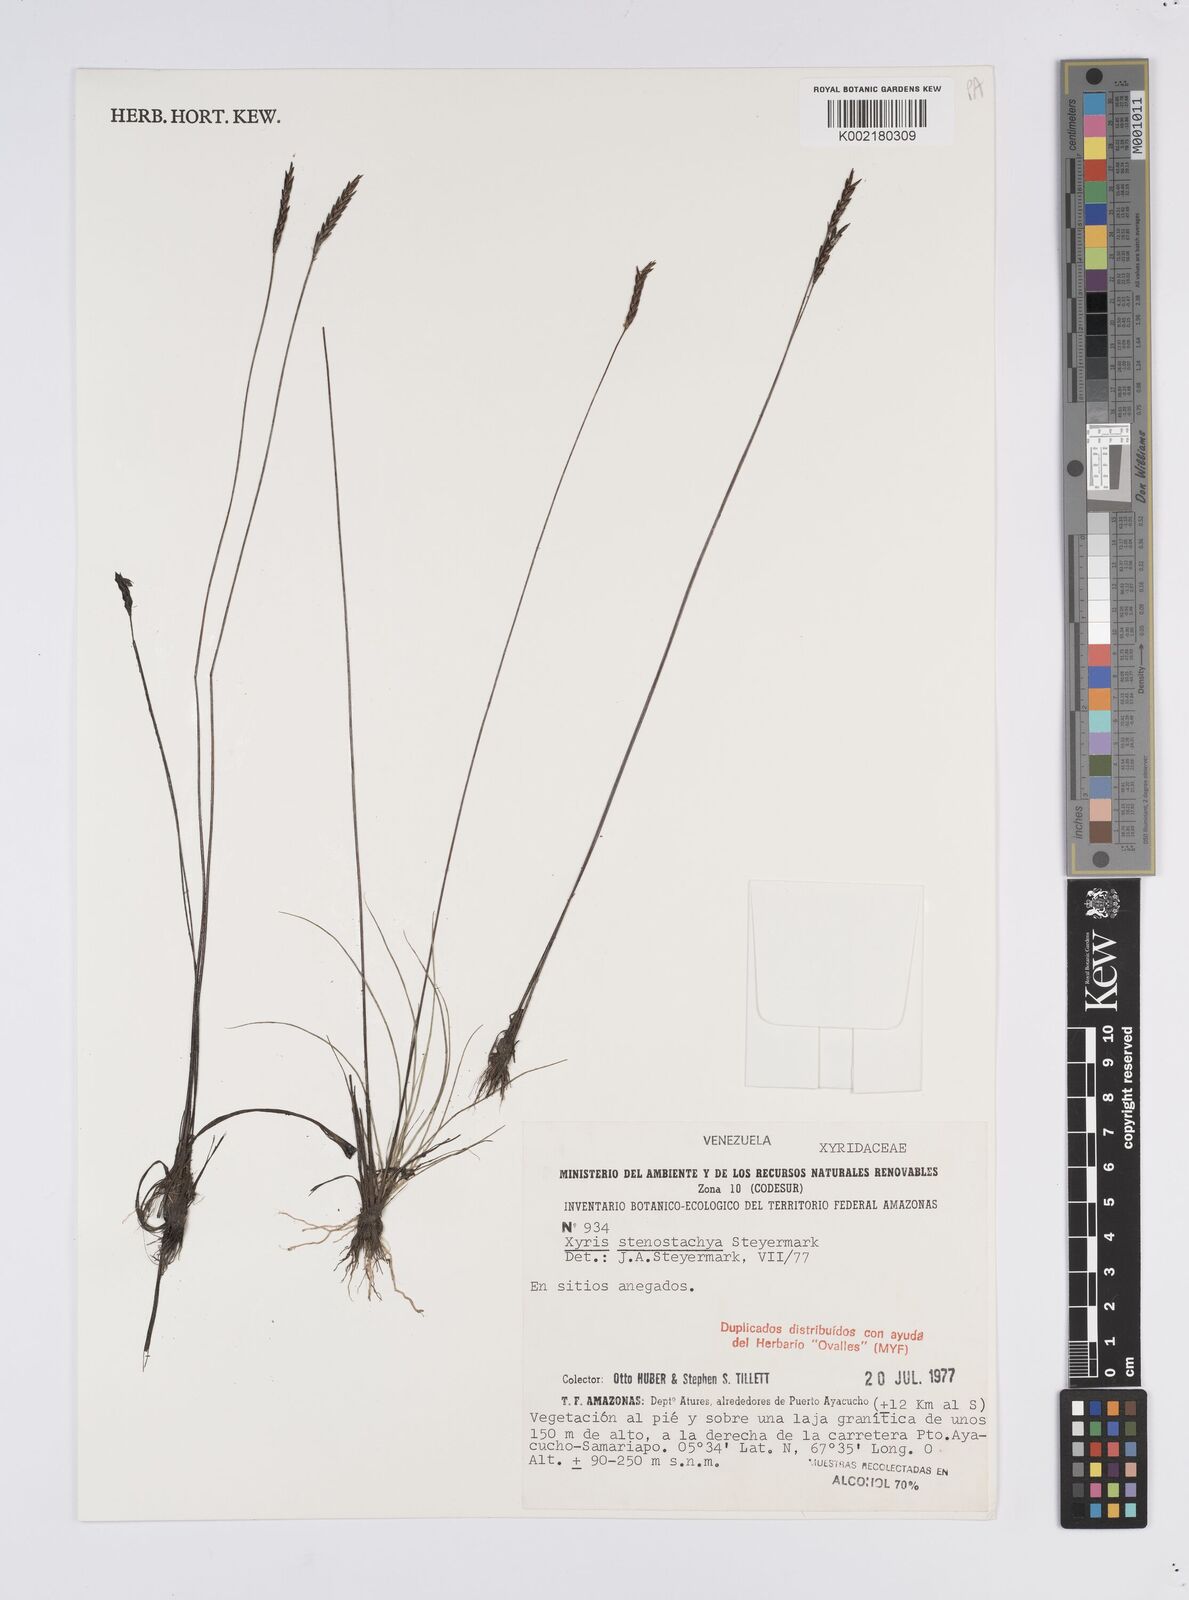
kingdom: Plantae
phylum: Tracheophyta
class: Liliopsida
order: Poales
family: Xyridaceae
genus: Xyris
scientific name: Xyris stenostachya
